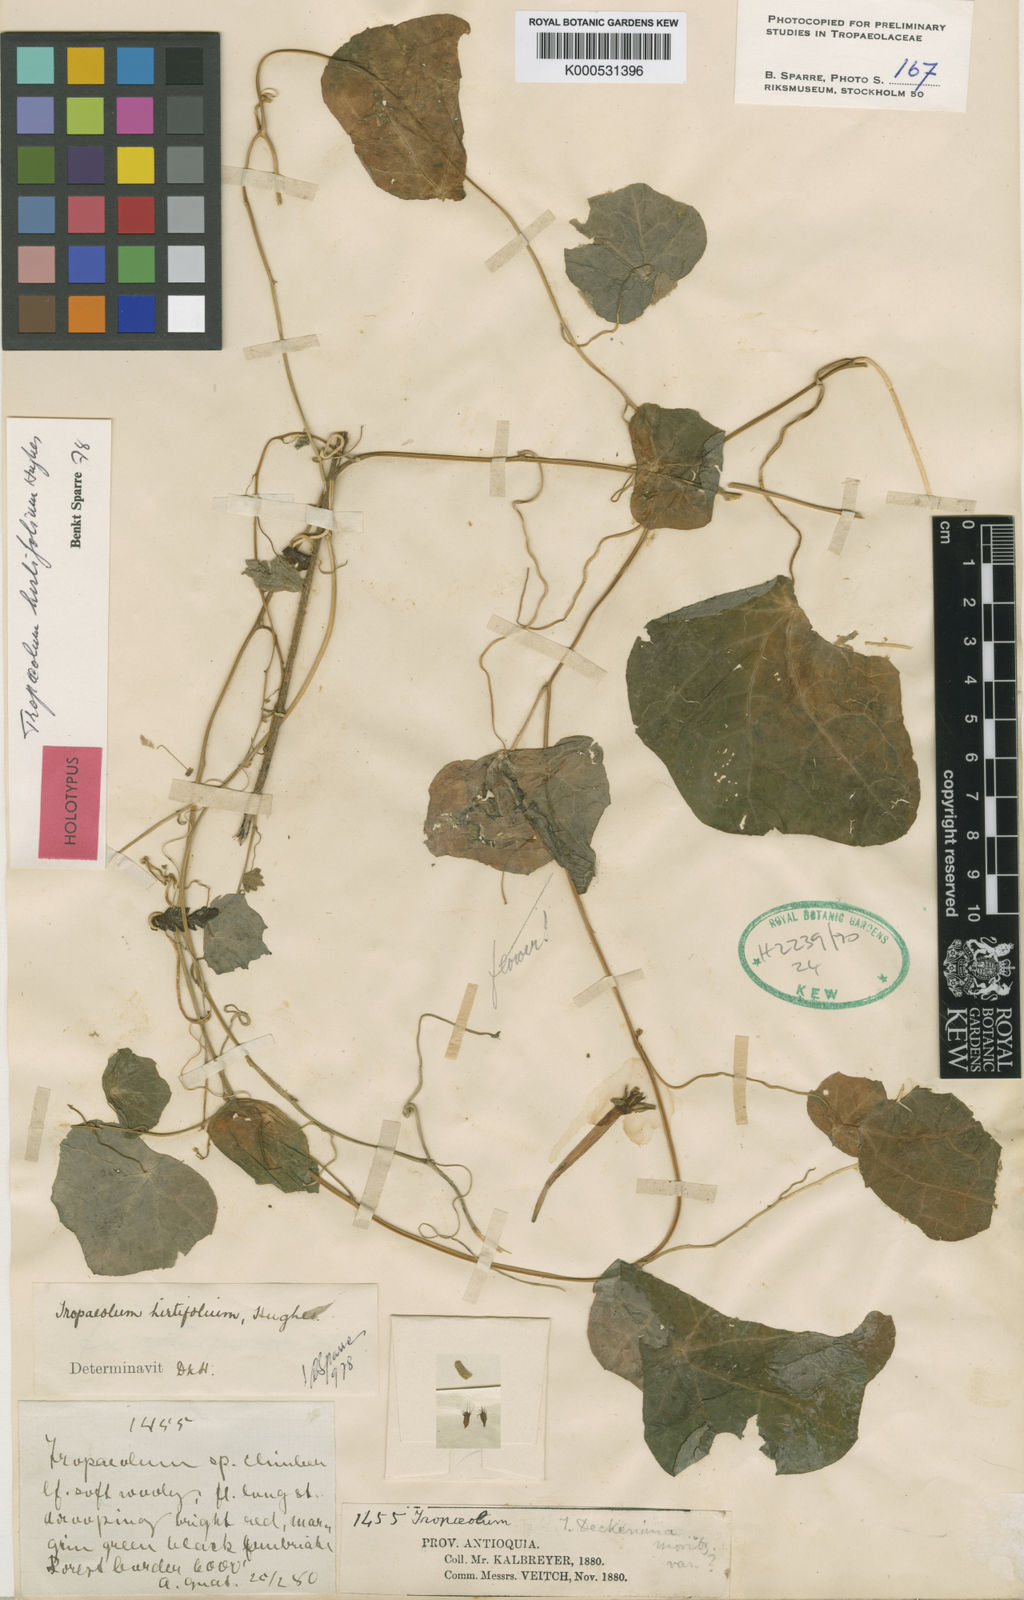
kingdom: Plantae
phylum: Tracheophyta
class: Magnoliopsida
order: Brassicales
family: Tropaeolaceae
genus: Tropaeolum
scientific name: Tropaeolum hirtifolium
